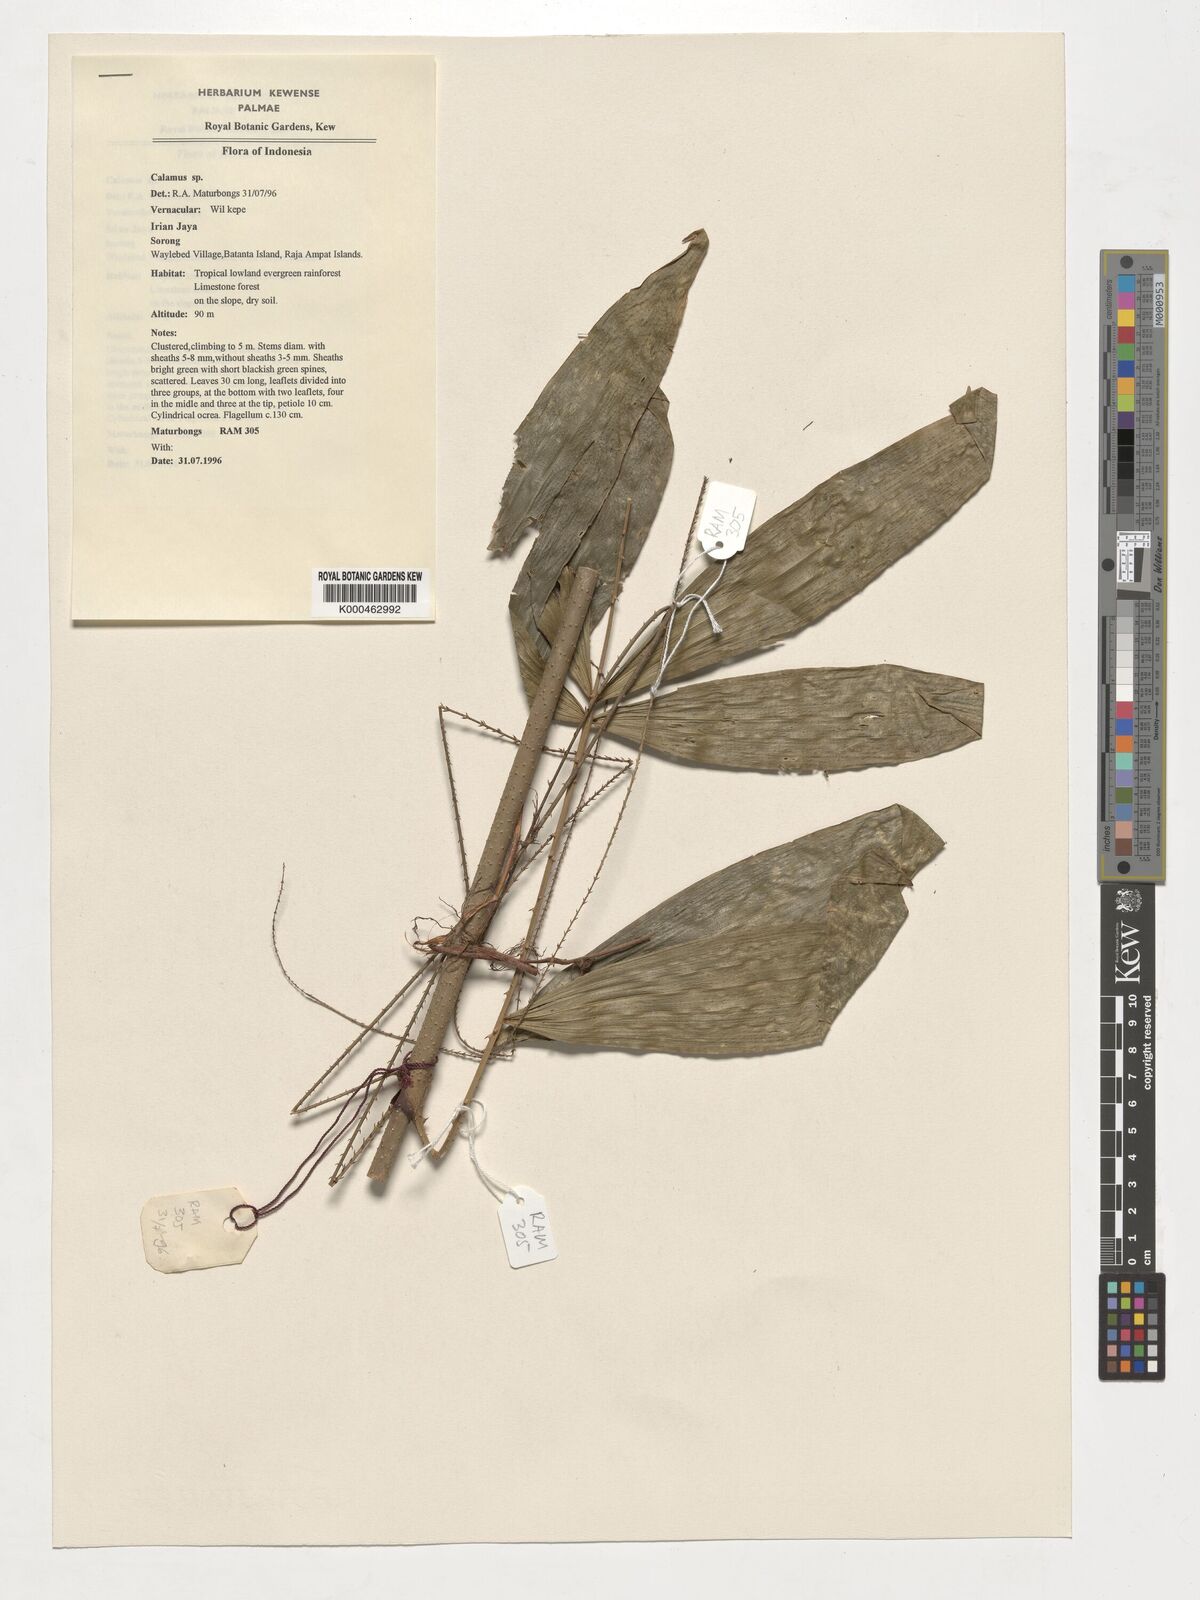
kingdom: Plantae
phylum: Tracheophyta
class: Liliopsida
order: Arecales
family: Arecaceae
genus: Calamus
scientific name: Calamus
